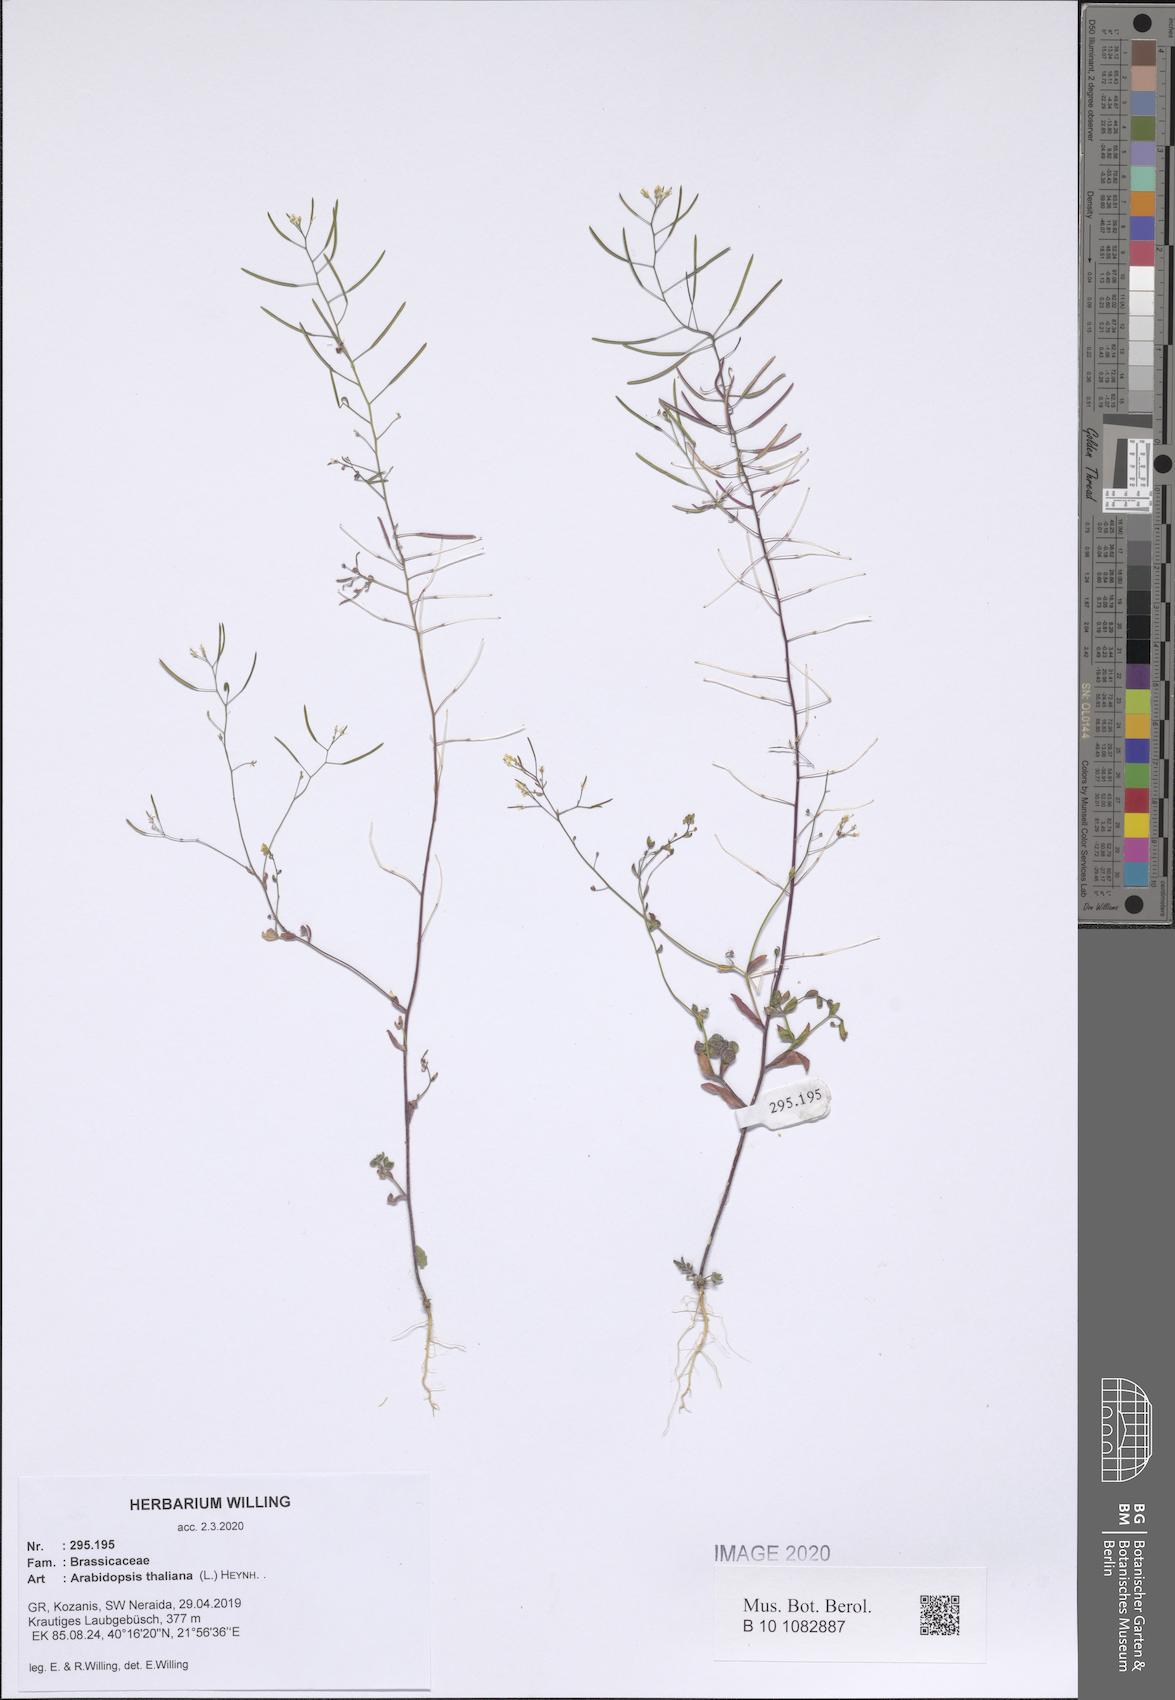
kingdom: Plantae
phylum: Tracheophyta
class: Magnoliopsida
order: Brassicales
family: Brassicaceae
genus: Arabidopsis
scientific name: Arabidopsis thaliana
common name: Thale cress
